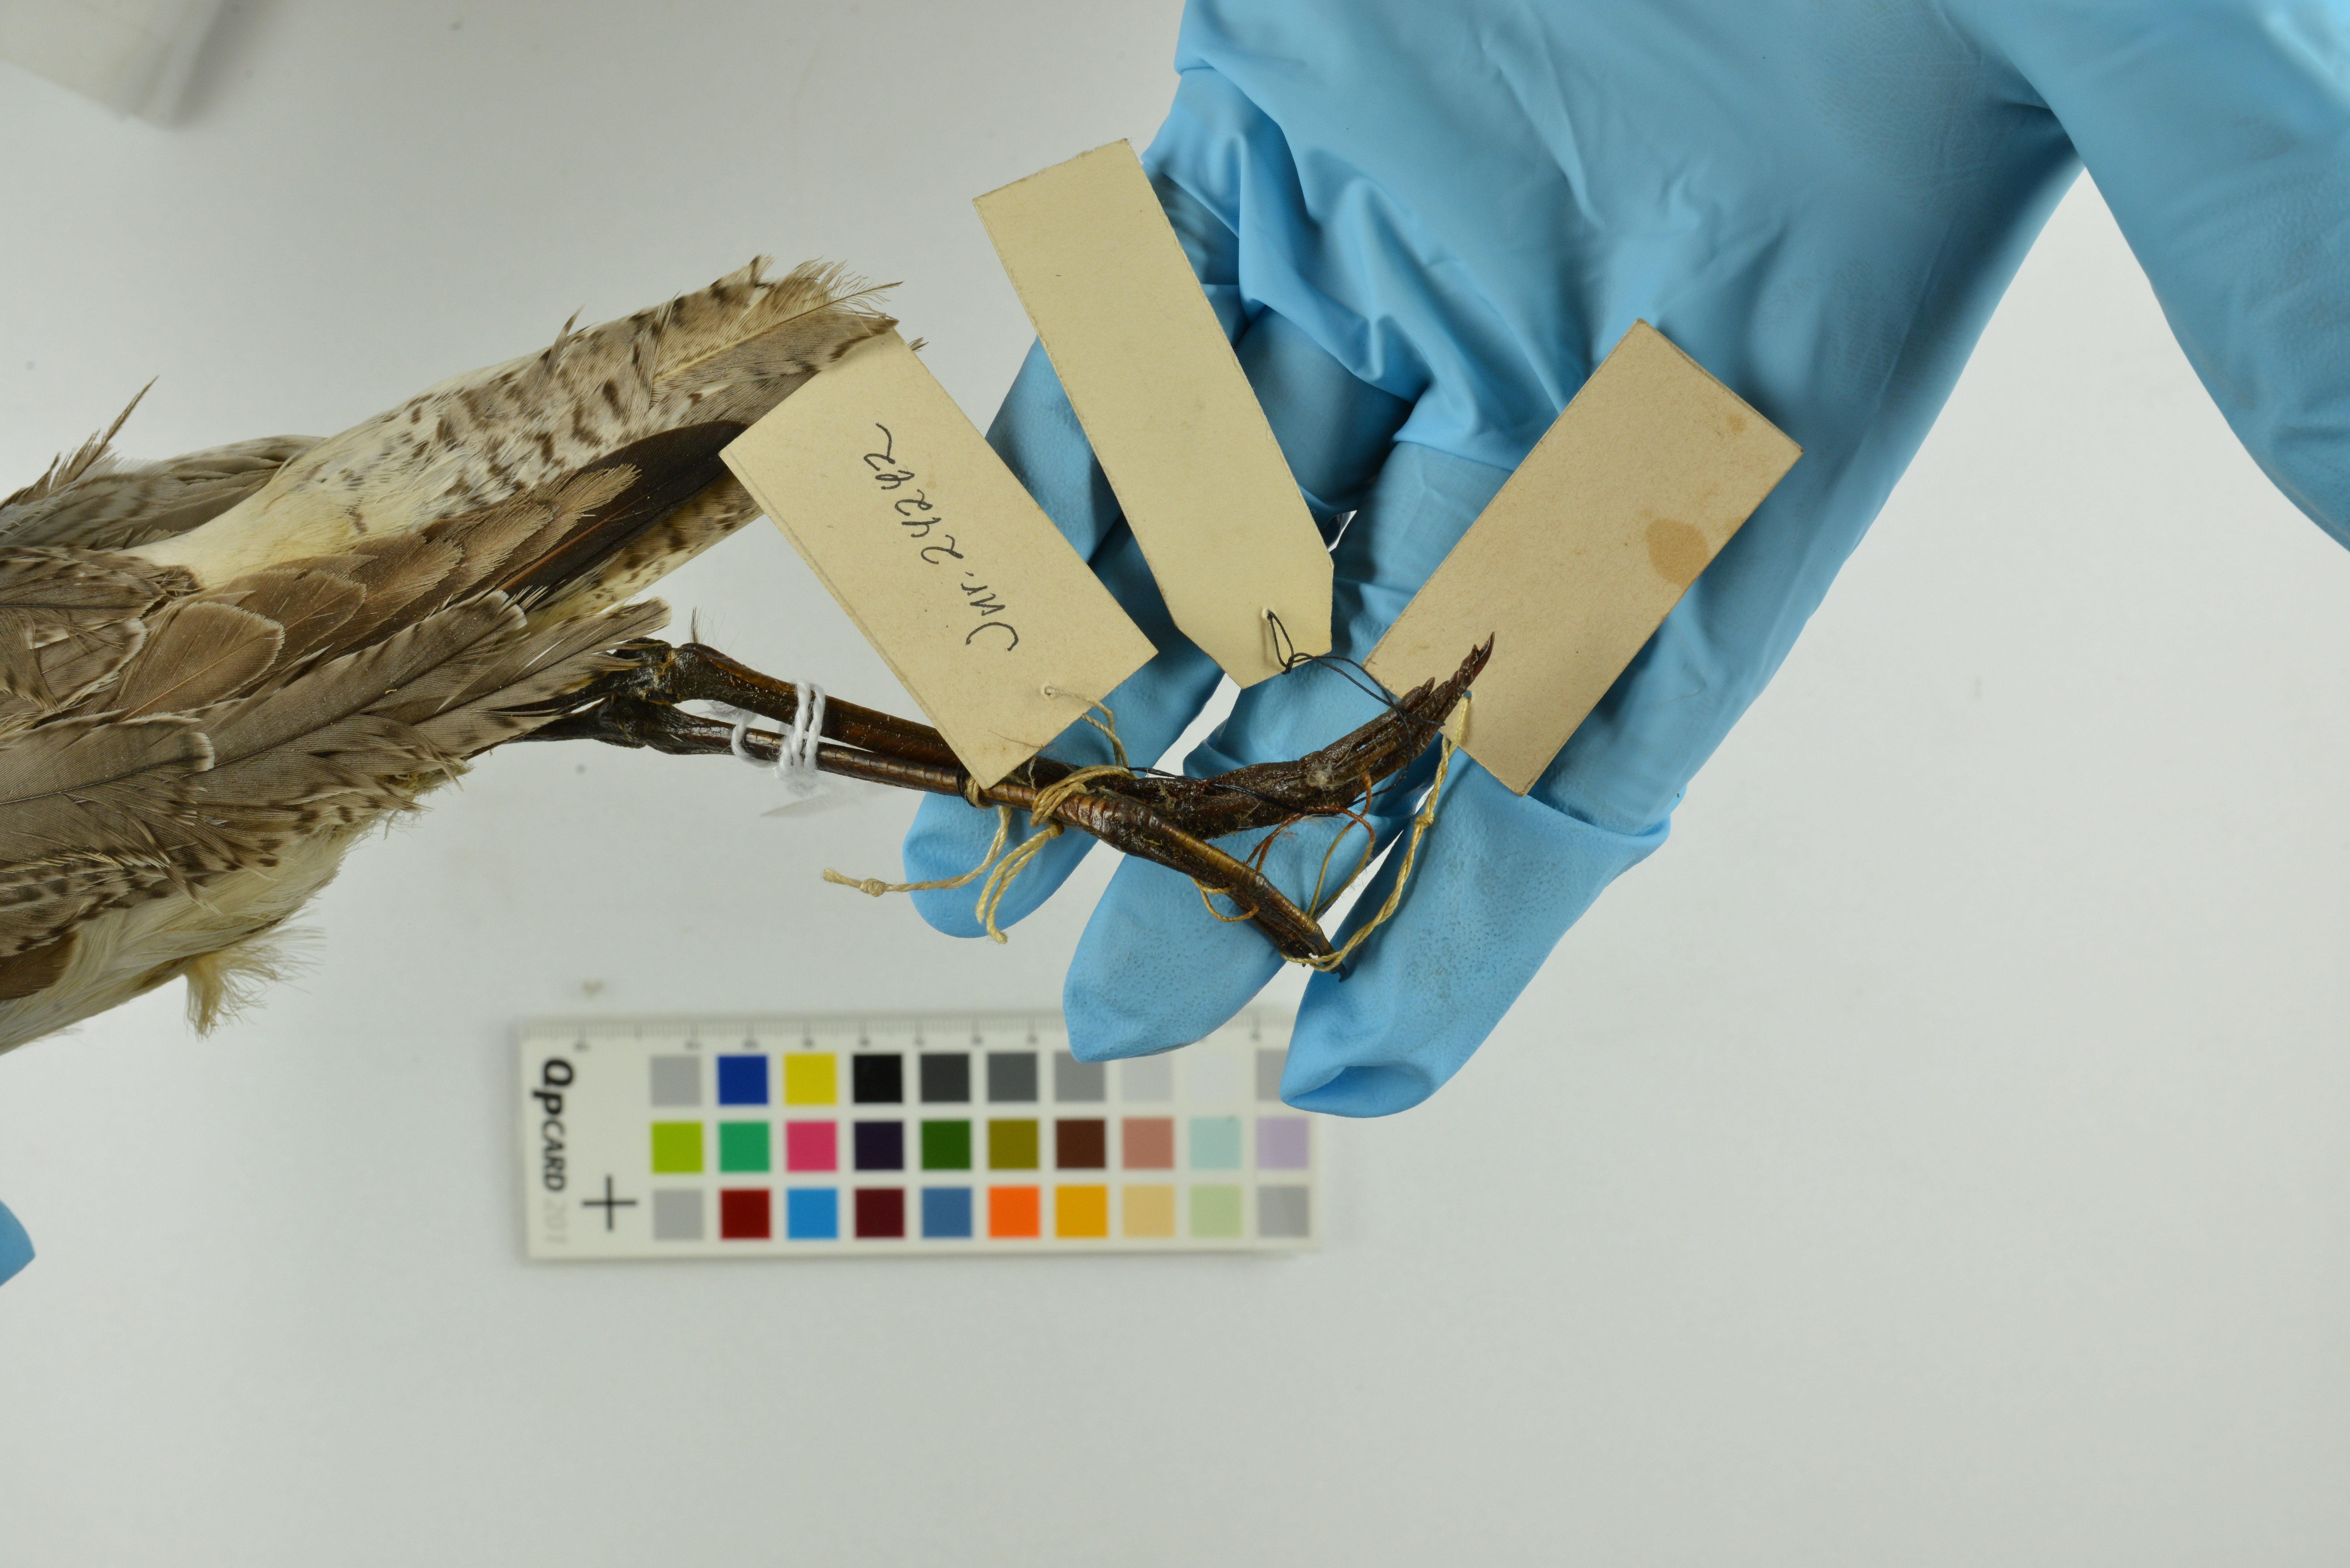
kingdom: Animalia
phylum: Chordata
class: Aves
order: Charadriiformes
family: Scolopacidae
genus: Tringa
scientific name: Tringa nebularia
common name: Common greenshank
